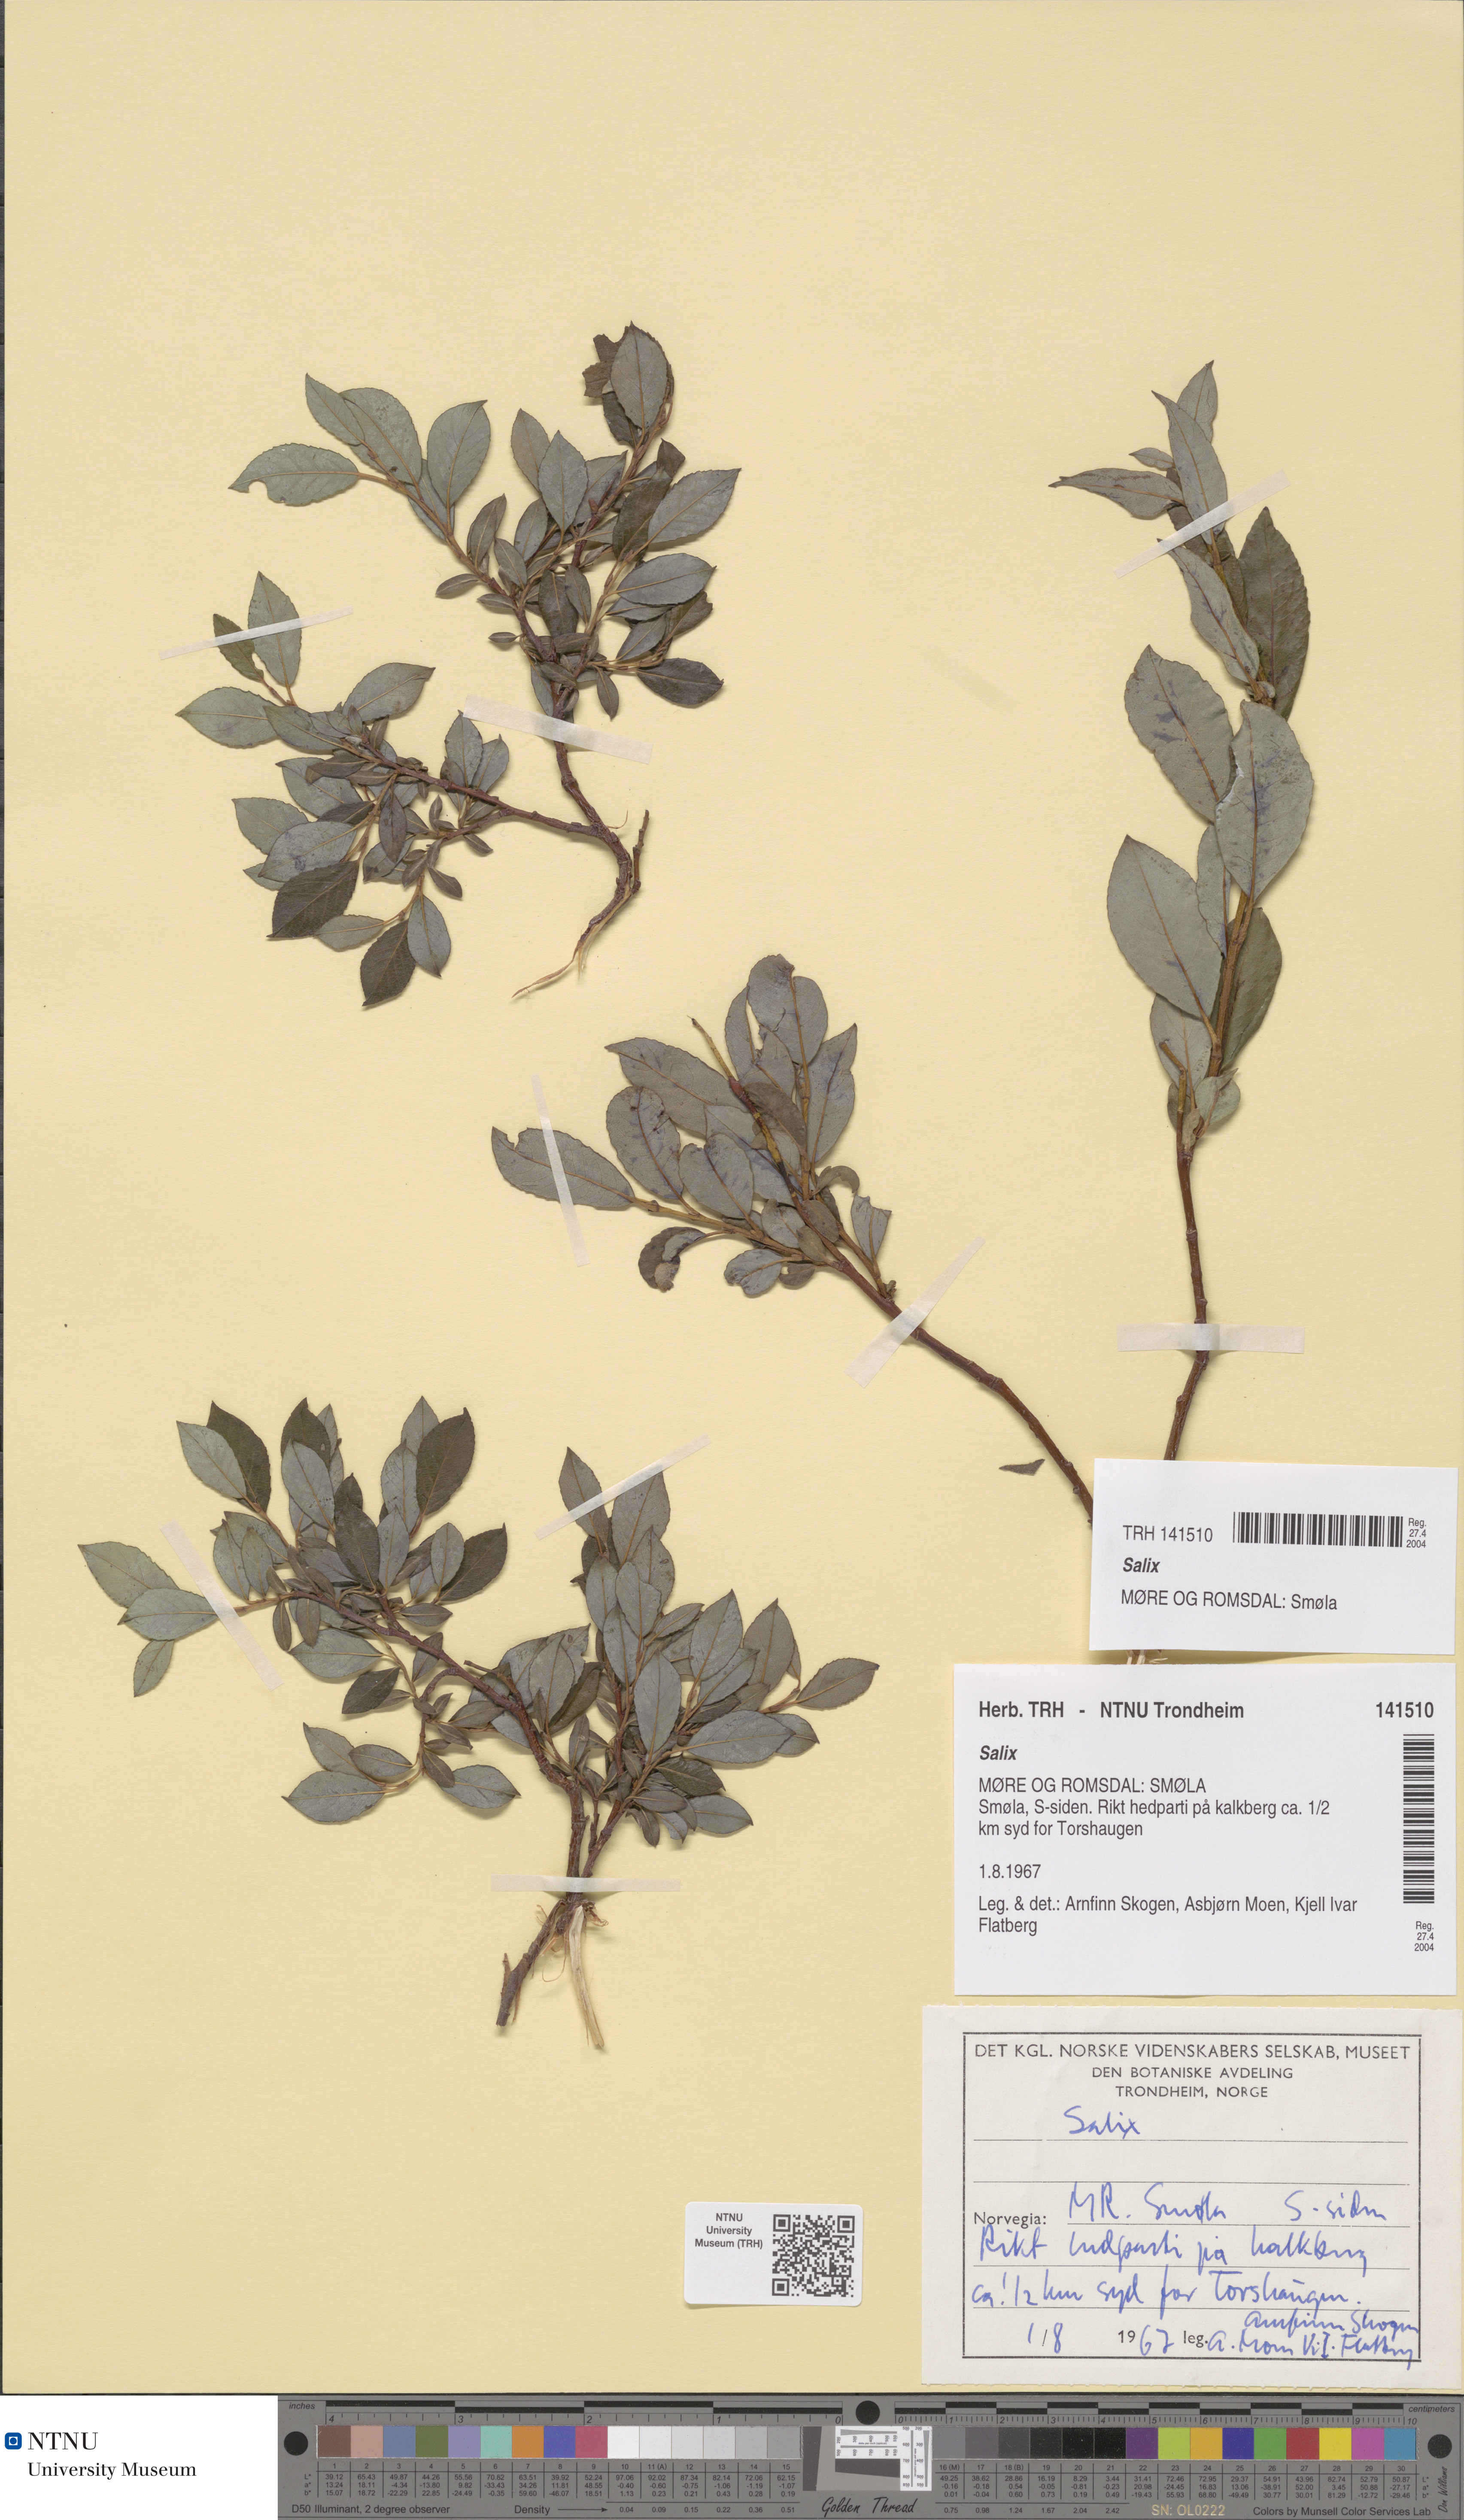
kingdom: Plantae
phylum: Tracheophyta
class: Magnoliopsida
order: Malpighiales
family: Salicaceae
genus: Salix
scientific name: Salix
